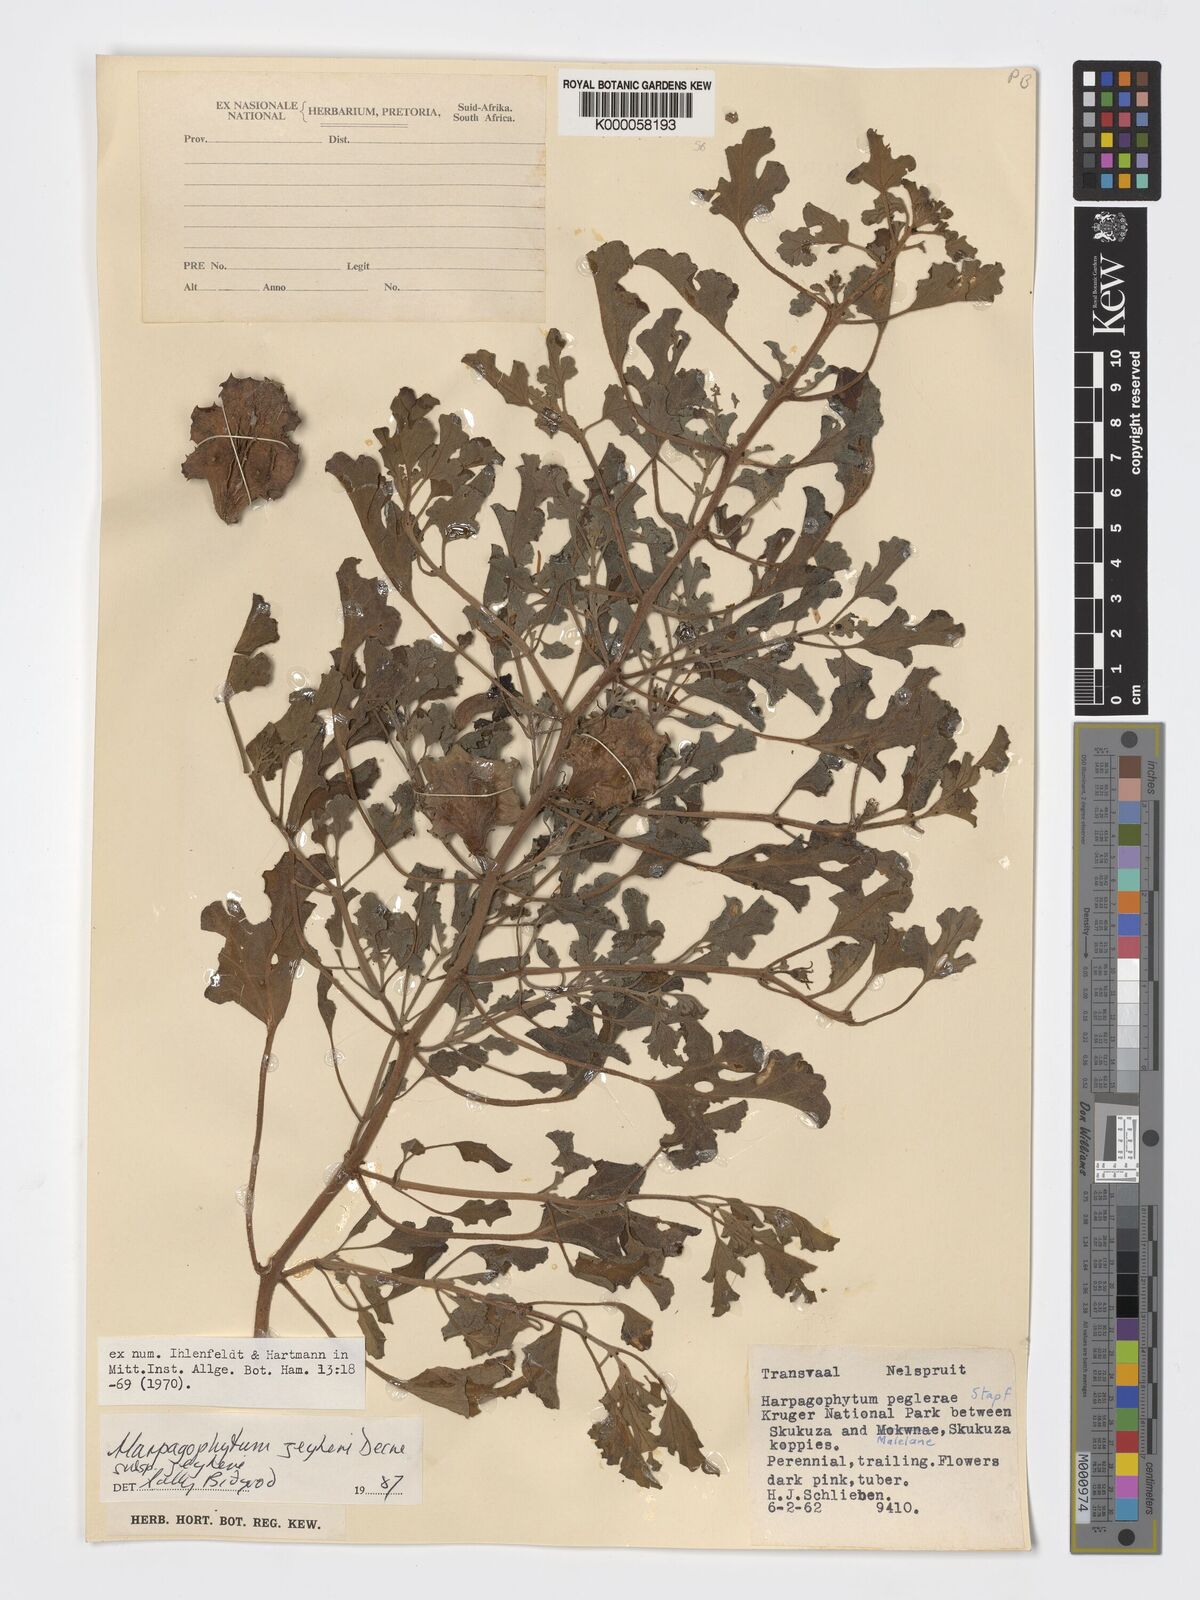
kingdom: Plantae
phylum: Tracheophyta
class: Magnoliopsida
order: Lamiales
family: Pedaliaceae
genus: Harpagophytum
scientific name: Harpagophytum zeyheri
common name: Grappleplant
